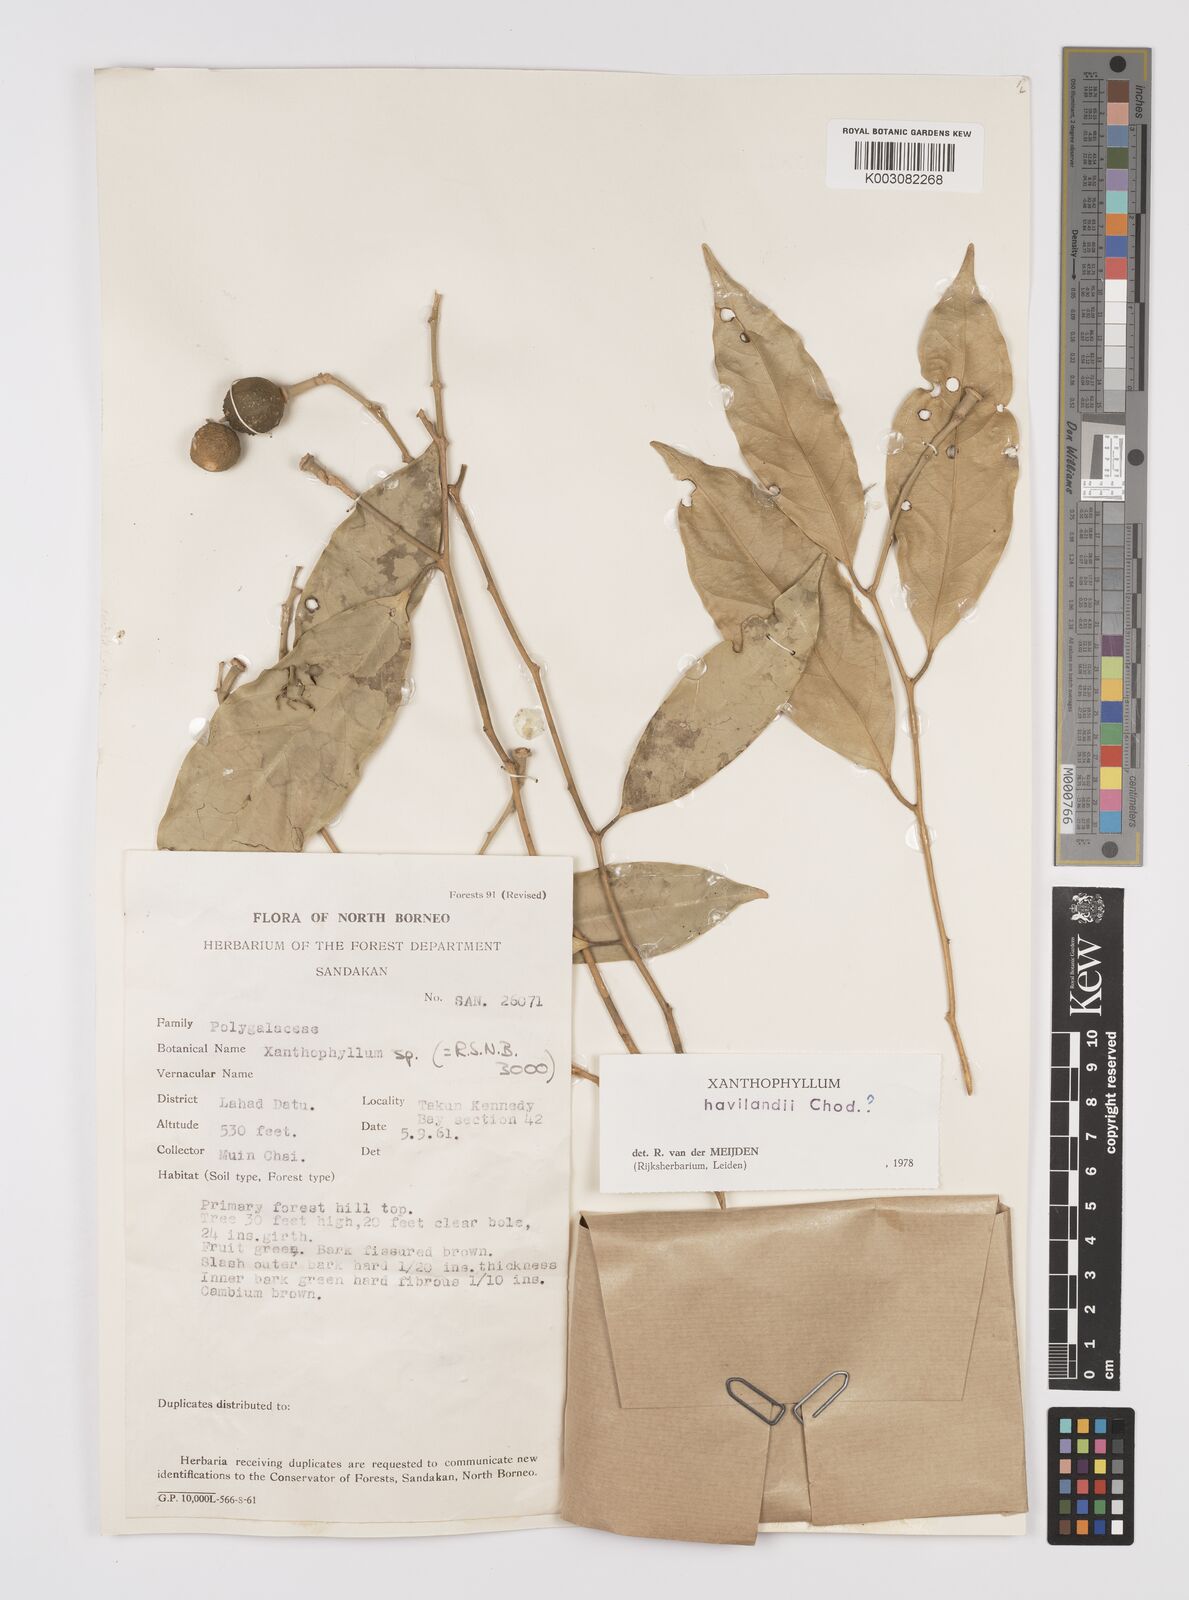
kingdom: Plantae
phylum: Tracheophyta
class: Magnoliopsida
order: Fabales
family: Polygalaceae
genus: Xanthophyllum
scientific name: Xanthophyllum flavescens
